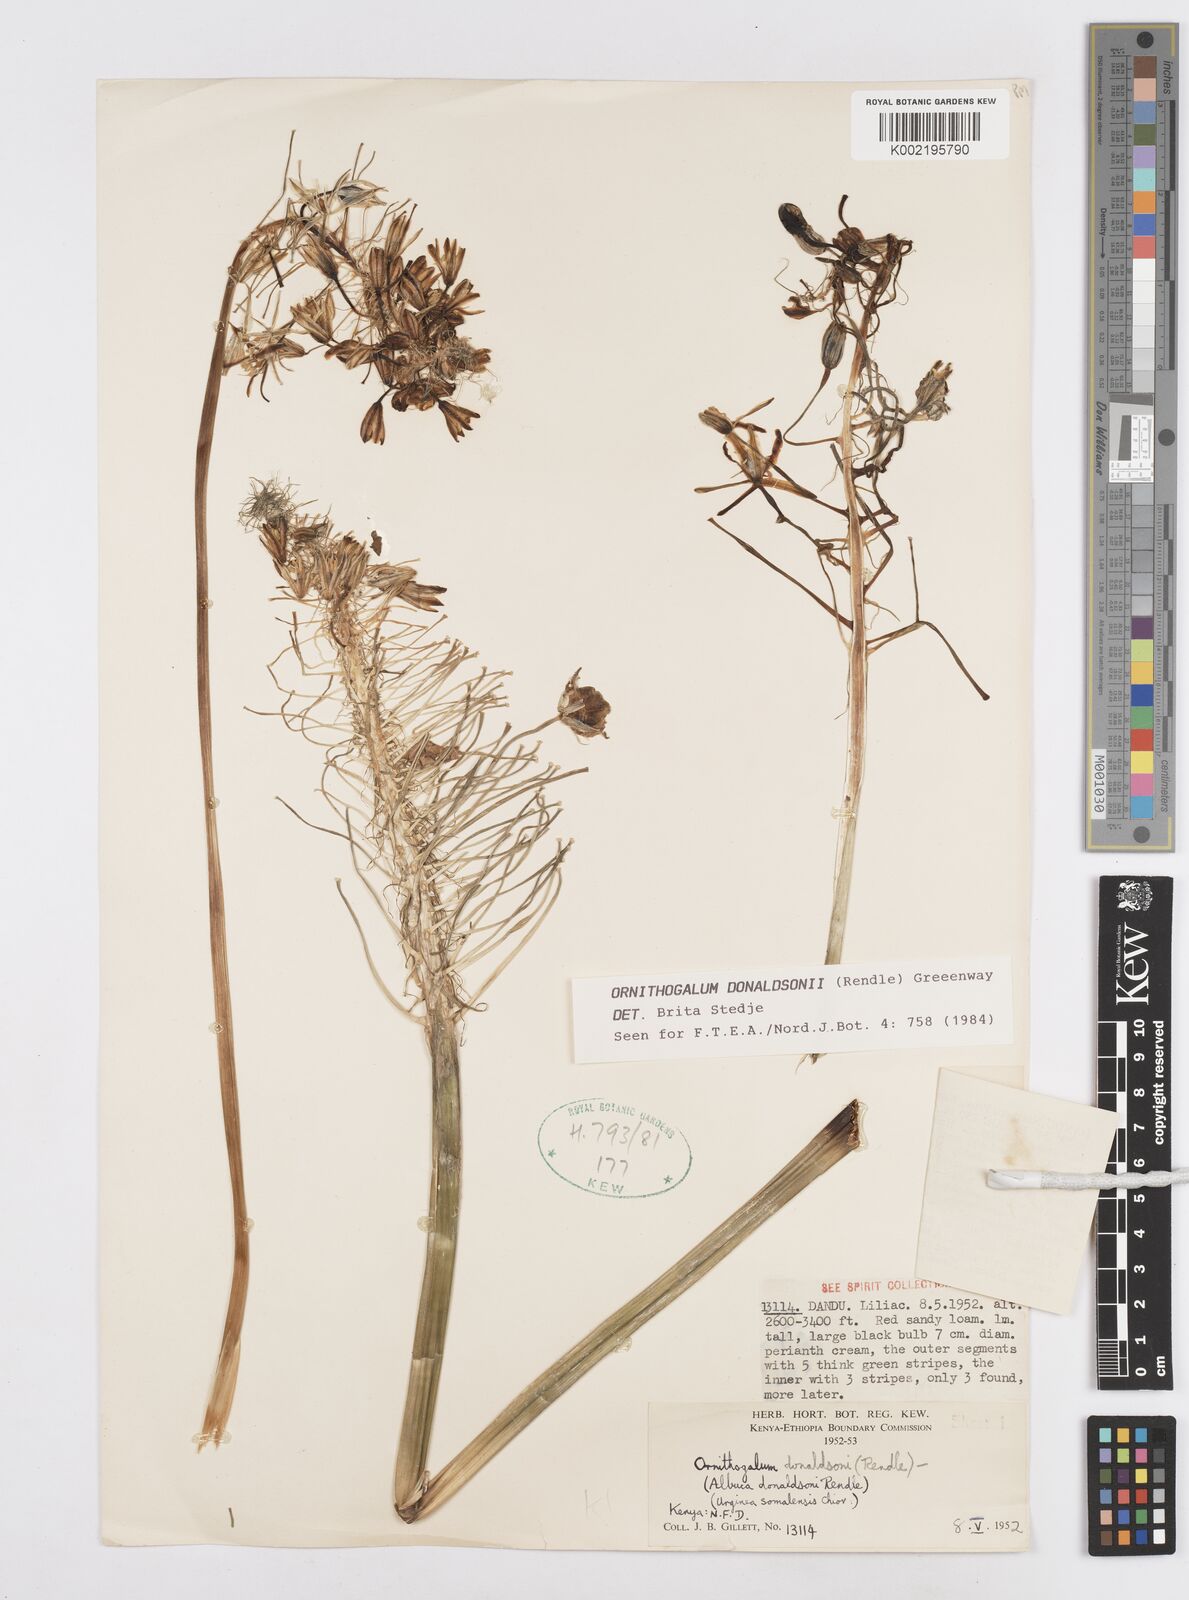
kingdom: Plantae
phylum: Tracheophyta
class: Liliopsida
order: Asparagales
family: Asparagaceae
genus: Albuca
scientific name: Albuca donaldsonii
